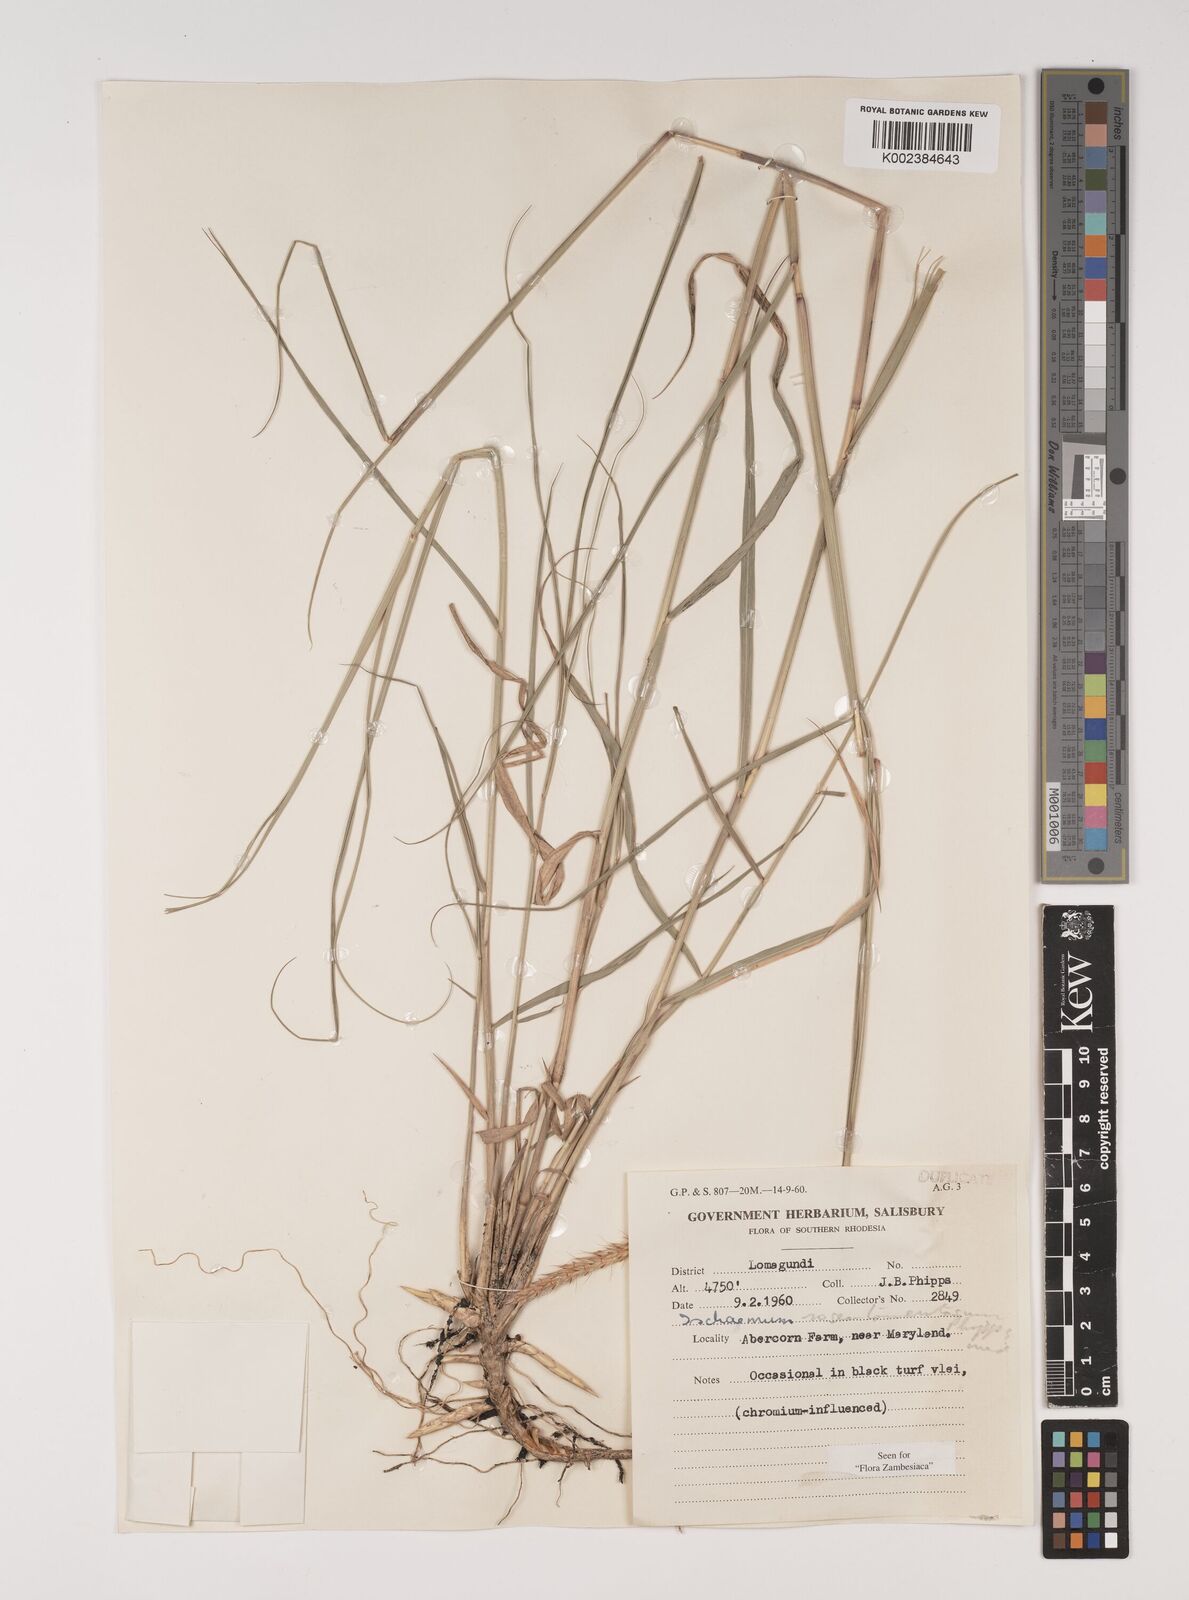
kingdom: Plantae
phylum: Tracheophyta
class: Liliopsida
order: Poales
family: Poaceae
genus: Ischaemum
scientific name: Ischaemum afrum
